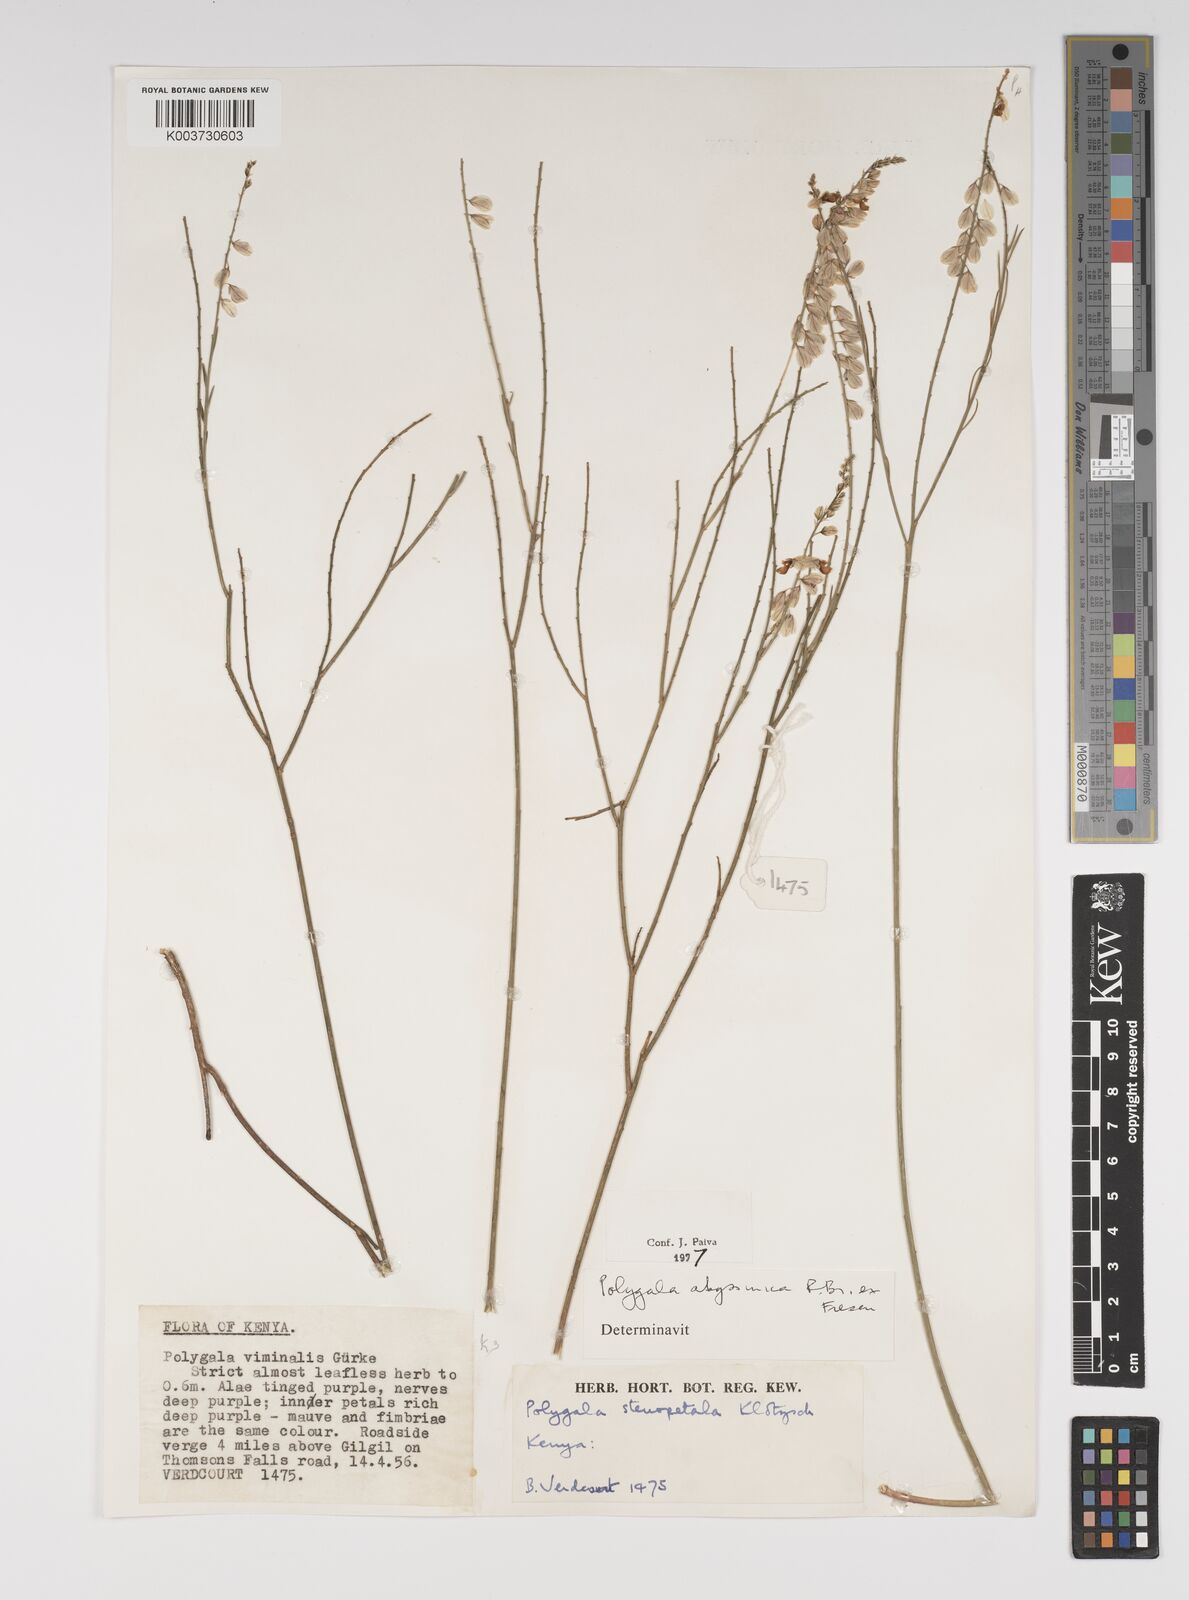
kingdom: Plantae
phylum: Tracheophyta
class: Magnoliopsida
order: Fabales
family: Polygalaceae
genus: Polygala
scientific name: Polygala abyssinica
